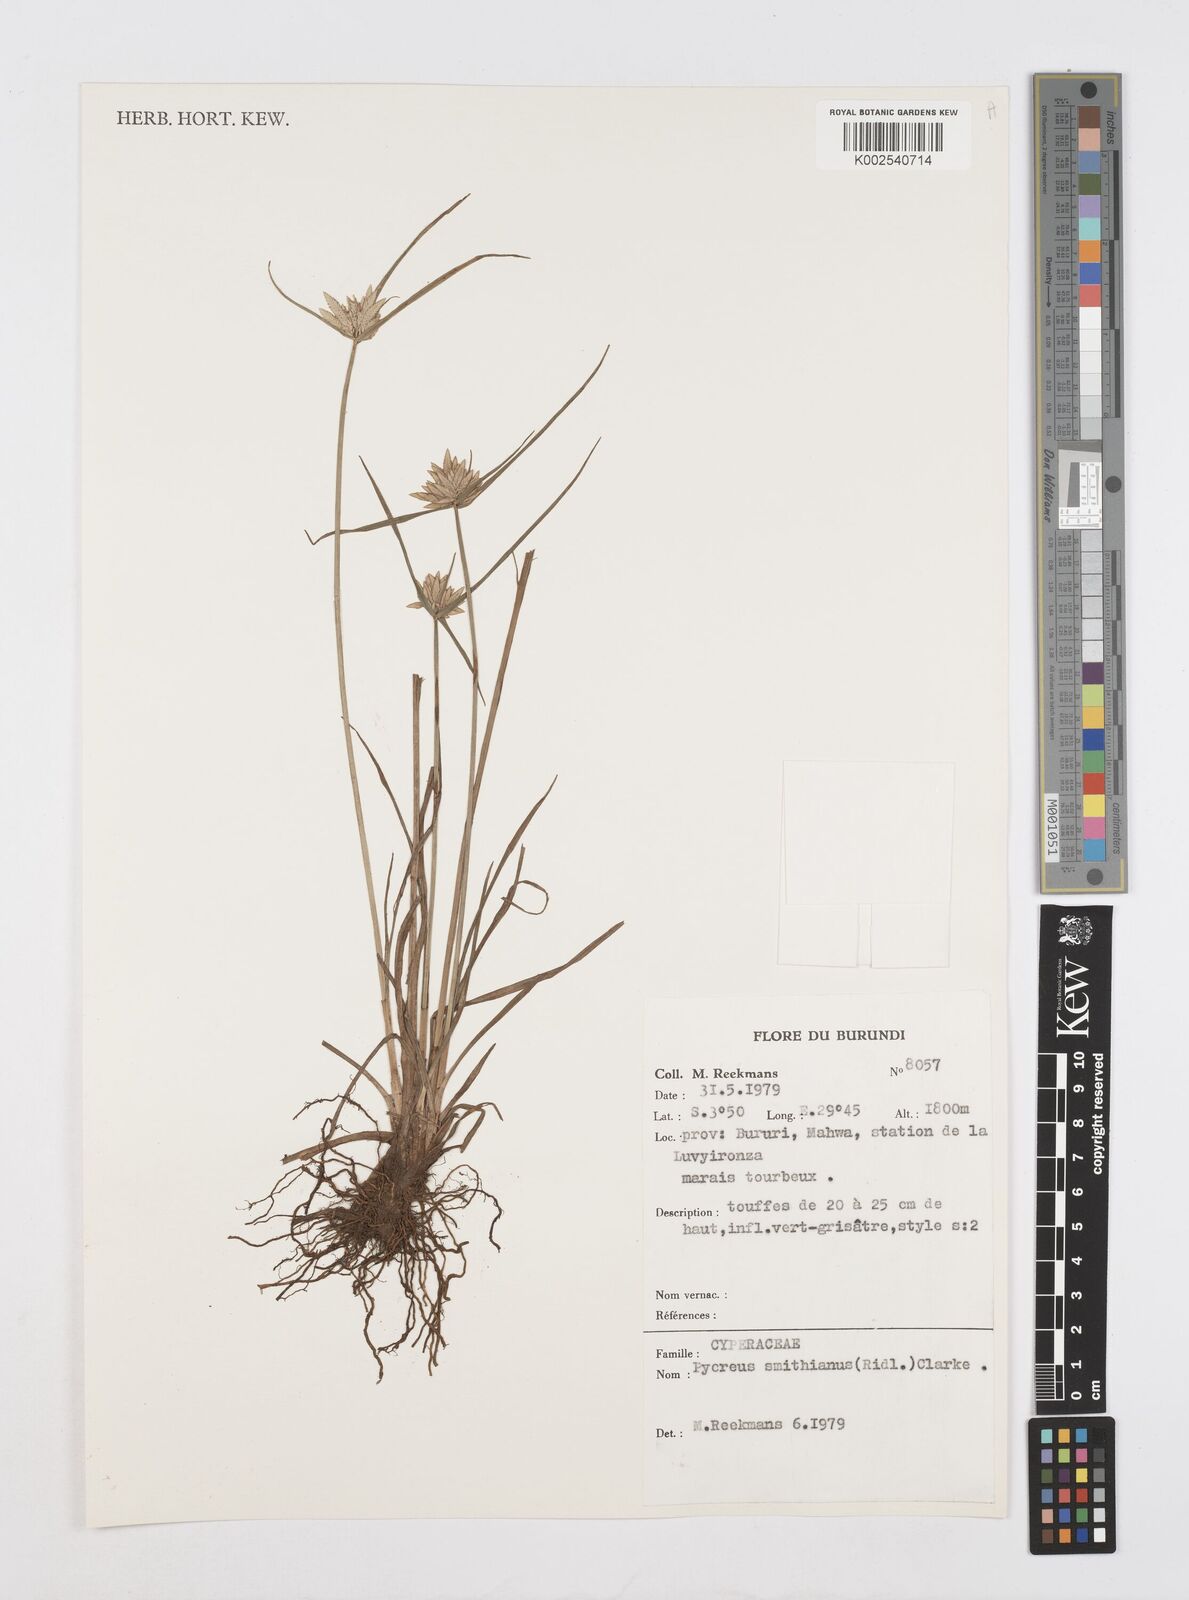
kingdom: Plantae
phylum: Tracheophyta
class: Liliopsida
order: Poales
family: Cyperaceae
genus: Cyperus
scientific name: Cyperus smithianus
